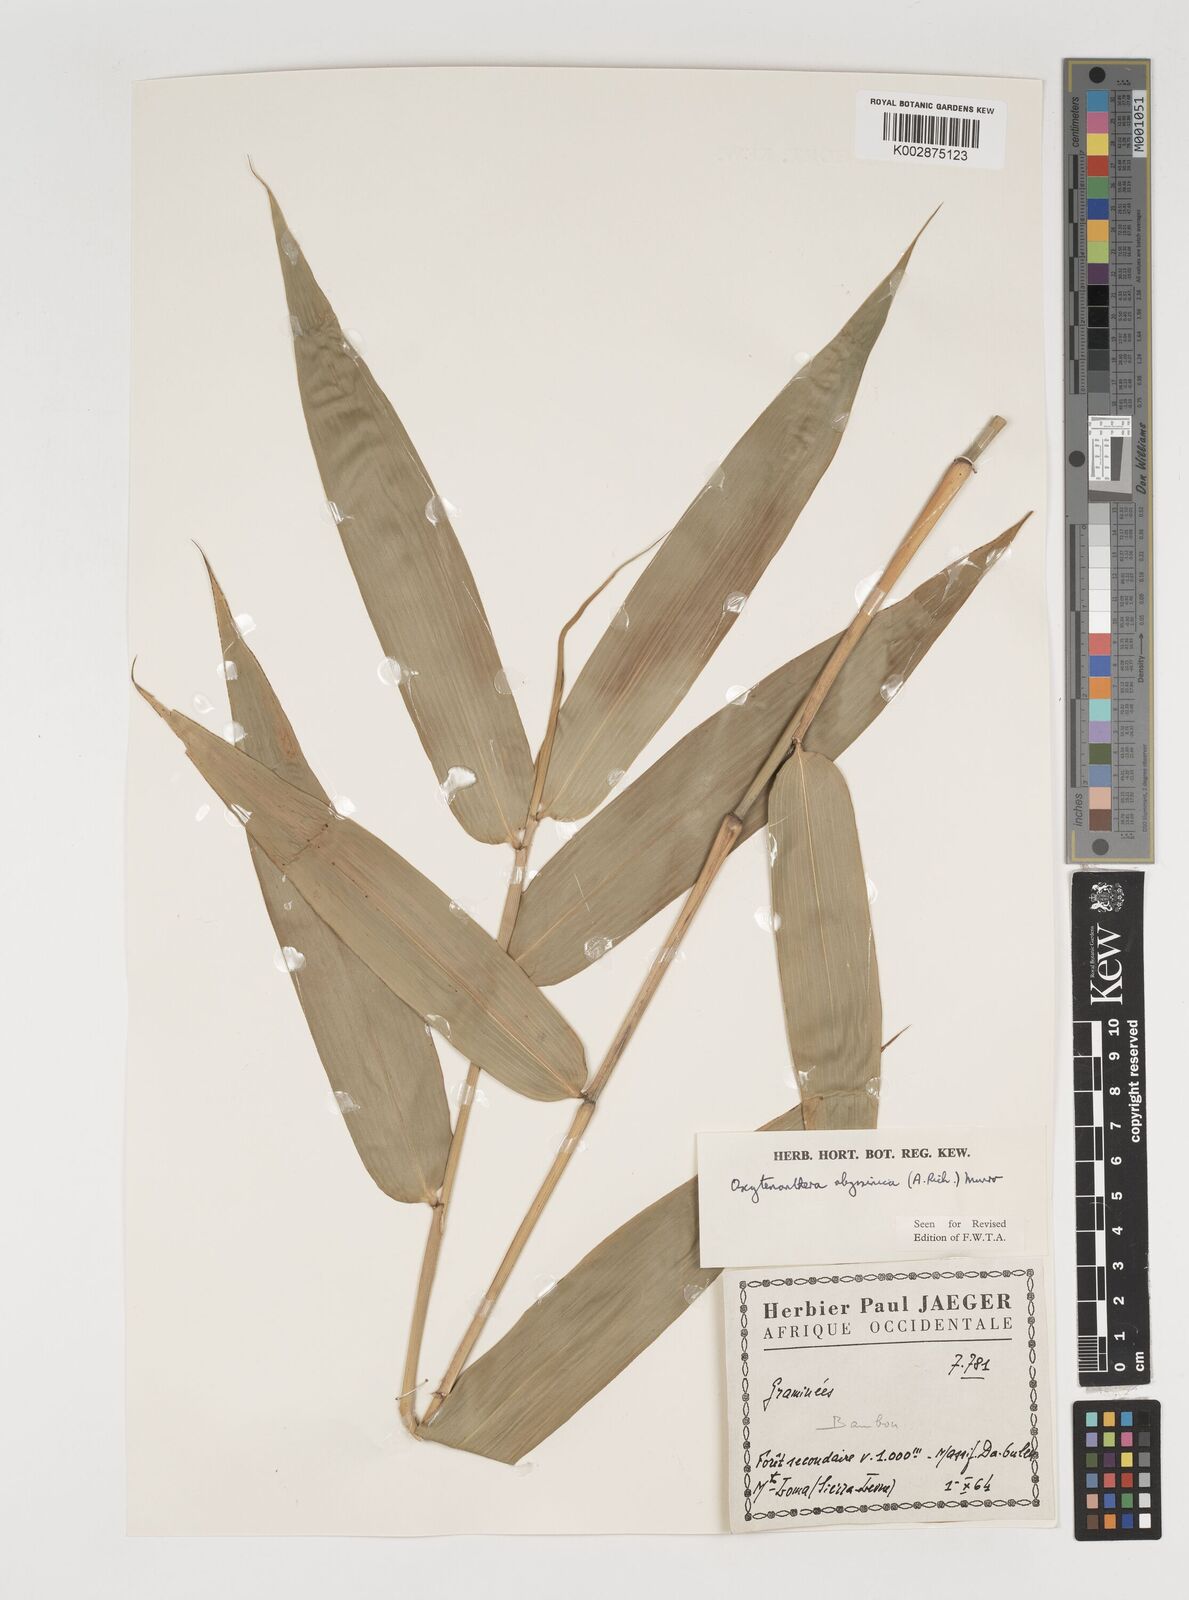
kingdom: Plantae
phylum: Tracheophyta
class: Liliopsida
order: Poales
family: Poaceae
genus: Oxytenanthera
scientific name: Oxytenanthera abyssinica
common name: Wine bamboo
